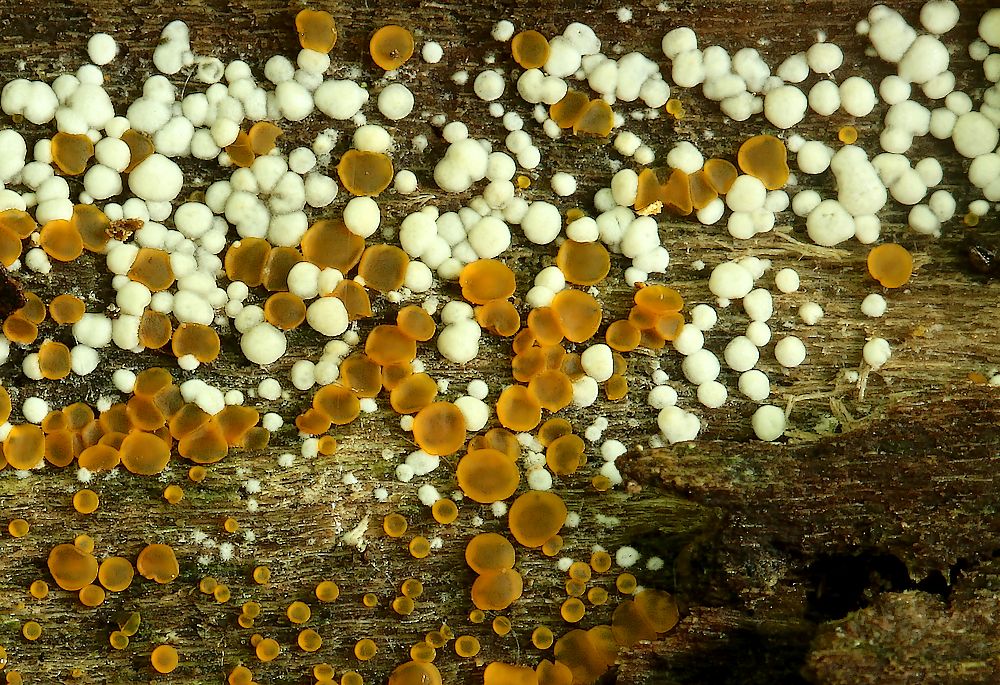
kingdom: Fungi
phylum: Ascomycota
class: Sordariomycetes
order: Hypocreales
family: Hypocreaceae
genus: Trichoderma
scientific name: Trichoderma strictipile
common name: grønprikket kødkerne
